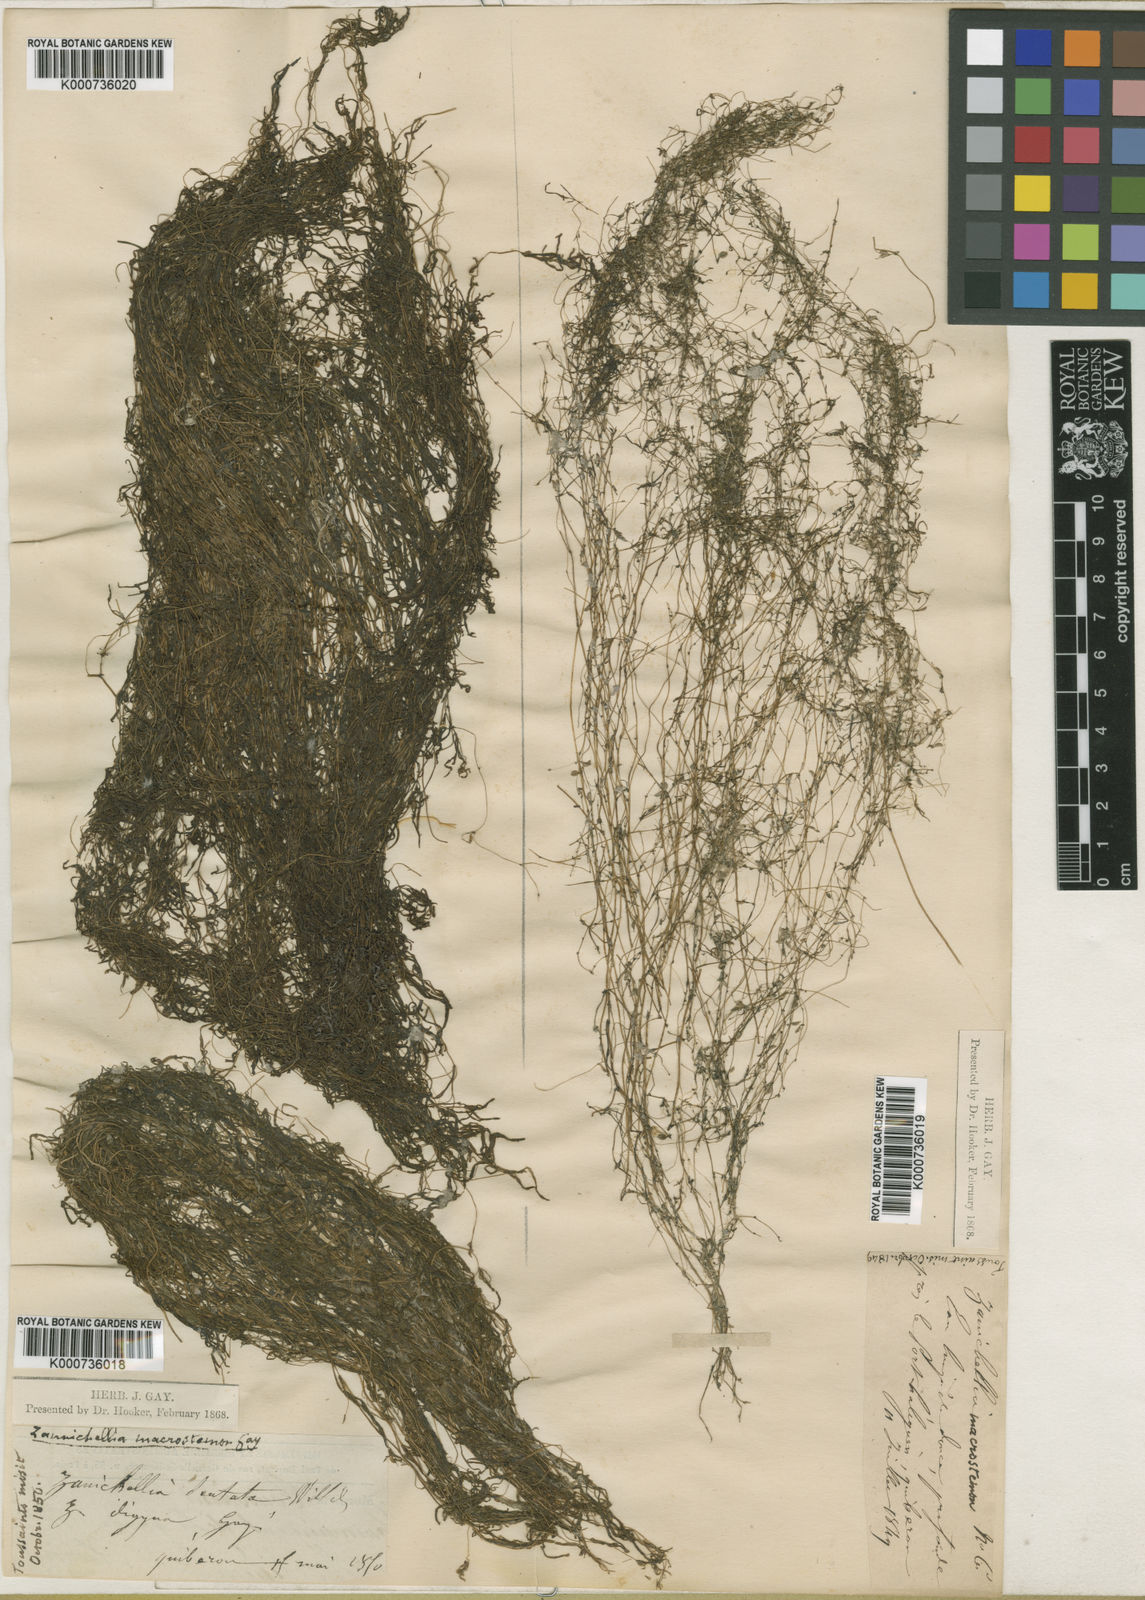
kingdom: Plantae
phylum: Tracheophyta
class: Liliopsida
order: Alismatales
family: Potamogetonaceae
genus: Zannichellia
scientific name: Zannichellia palustris
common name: Horned pondweed
